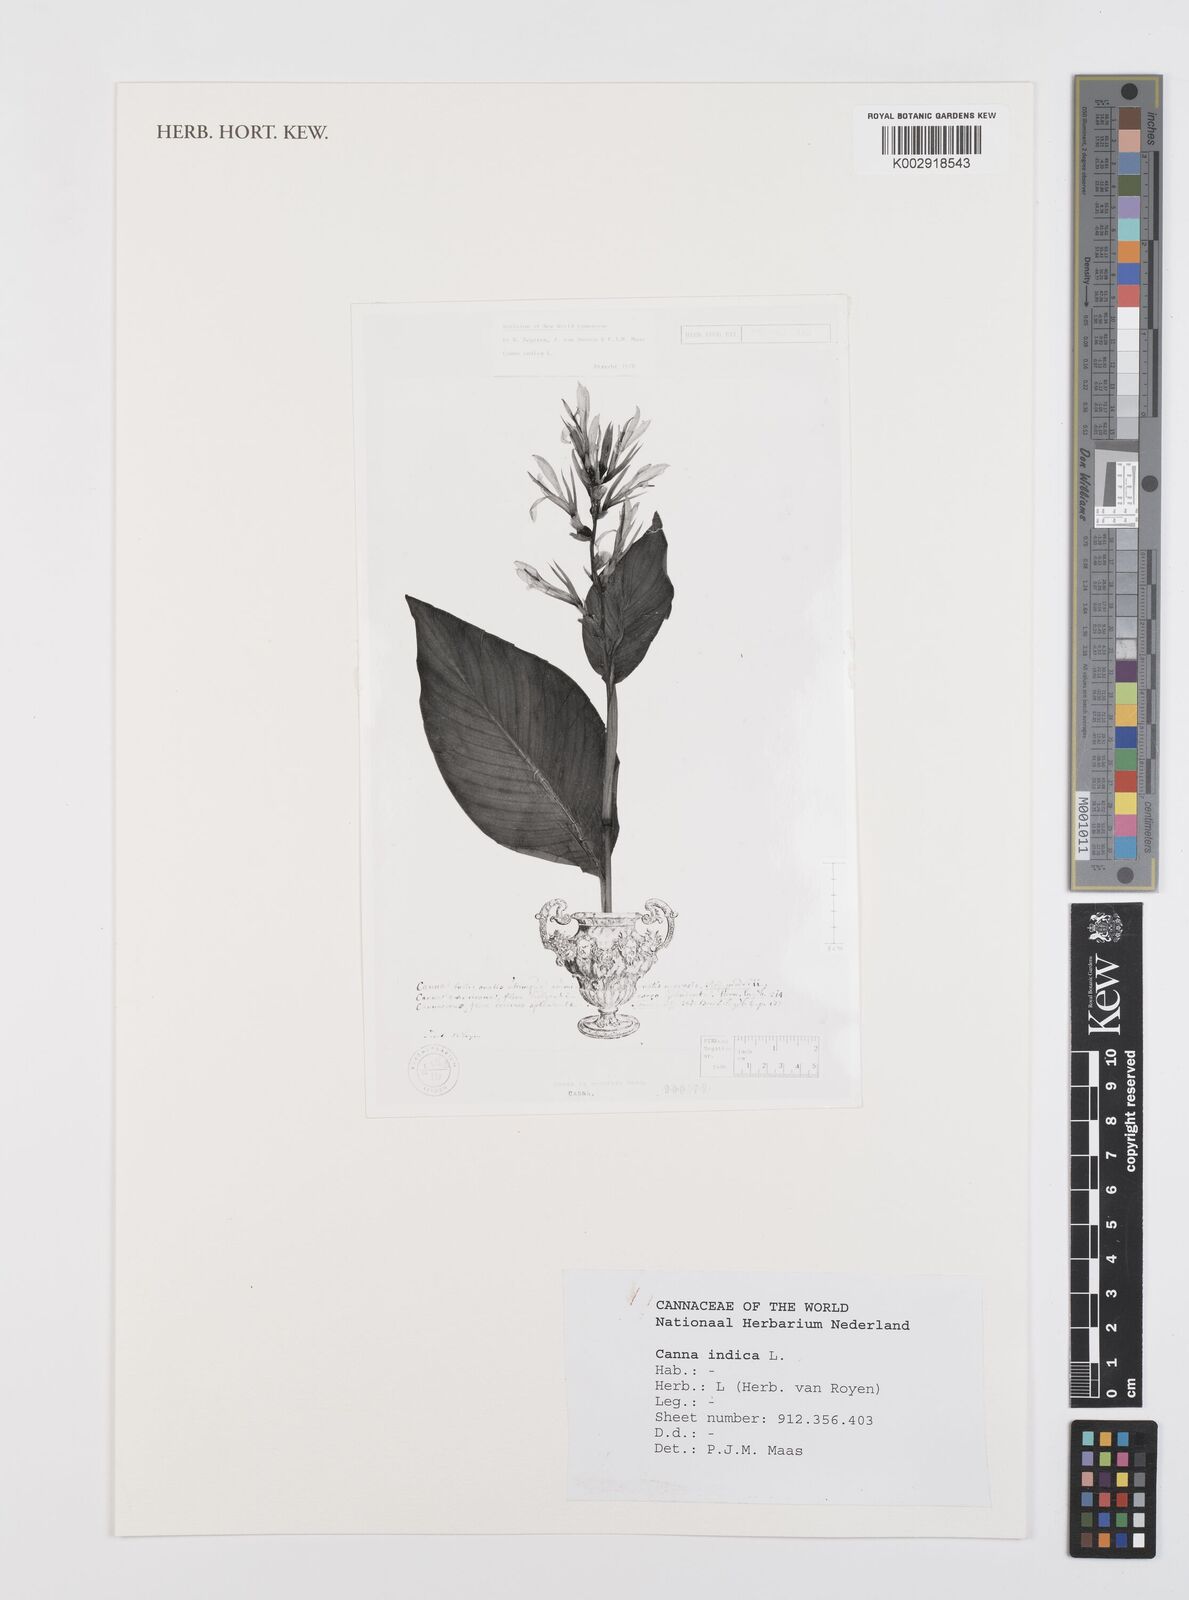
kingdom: Plantae
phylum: Tracheophyta
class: Liliopsida
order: Zingiberales
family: Cannaceae
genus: Canna
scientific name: Canna indica
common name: Indian shot
